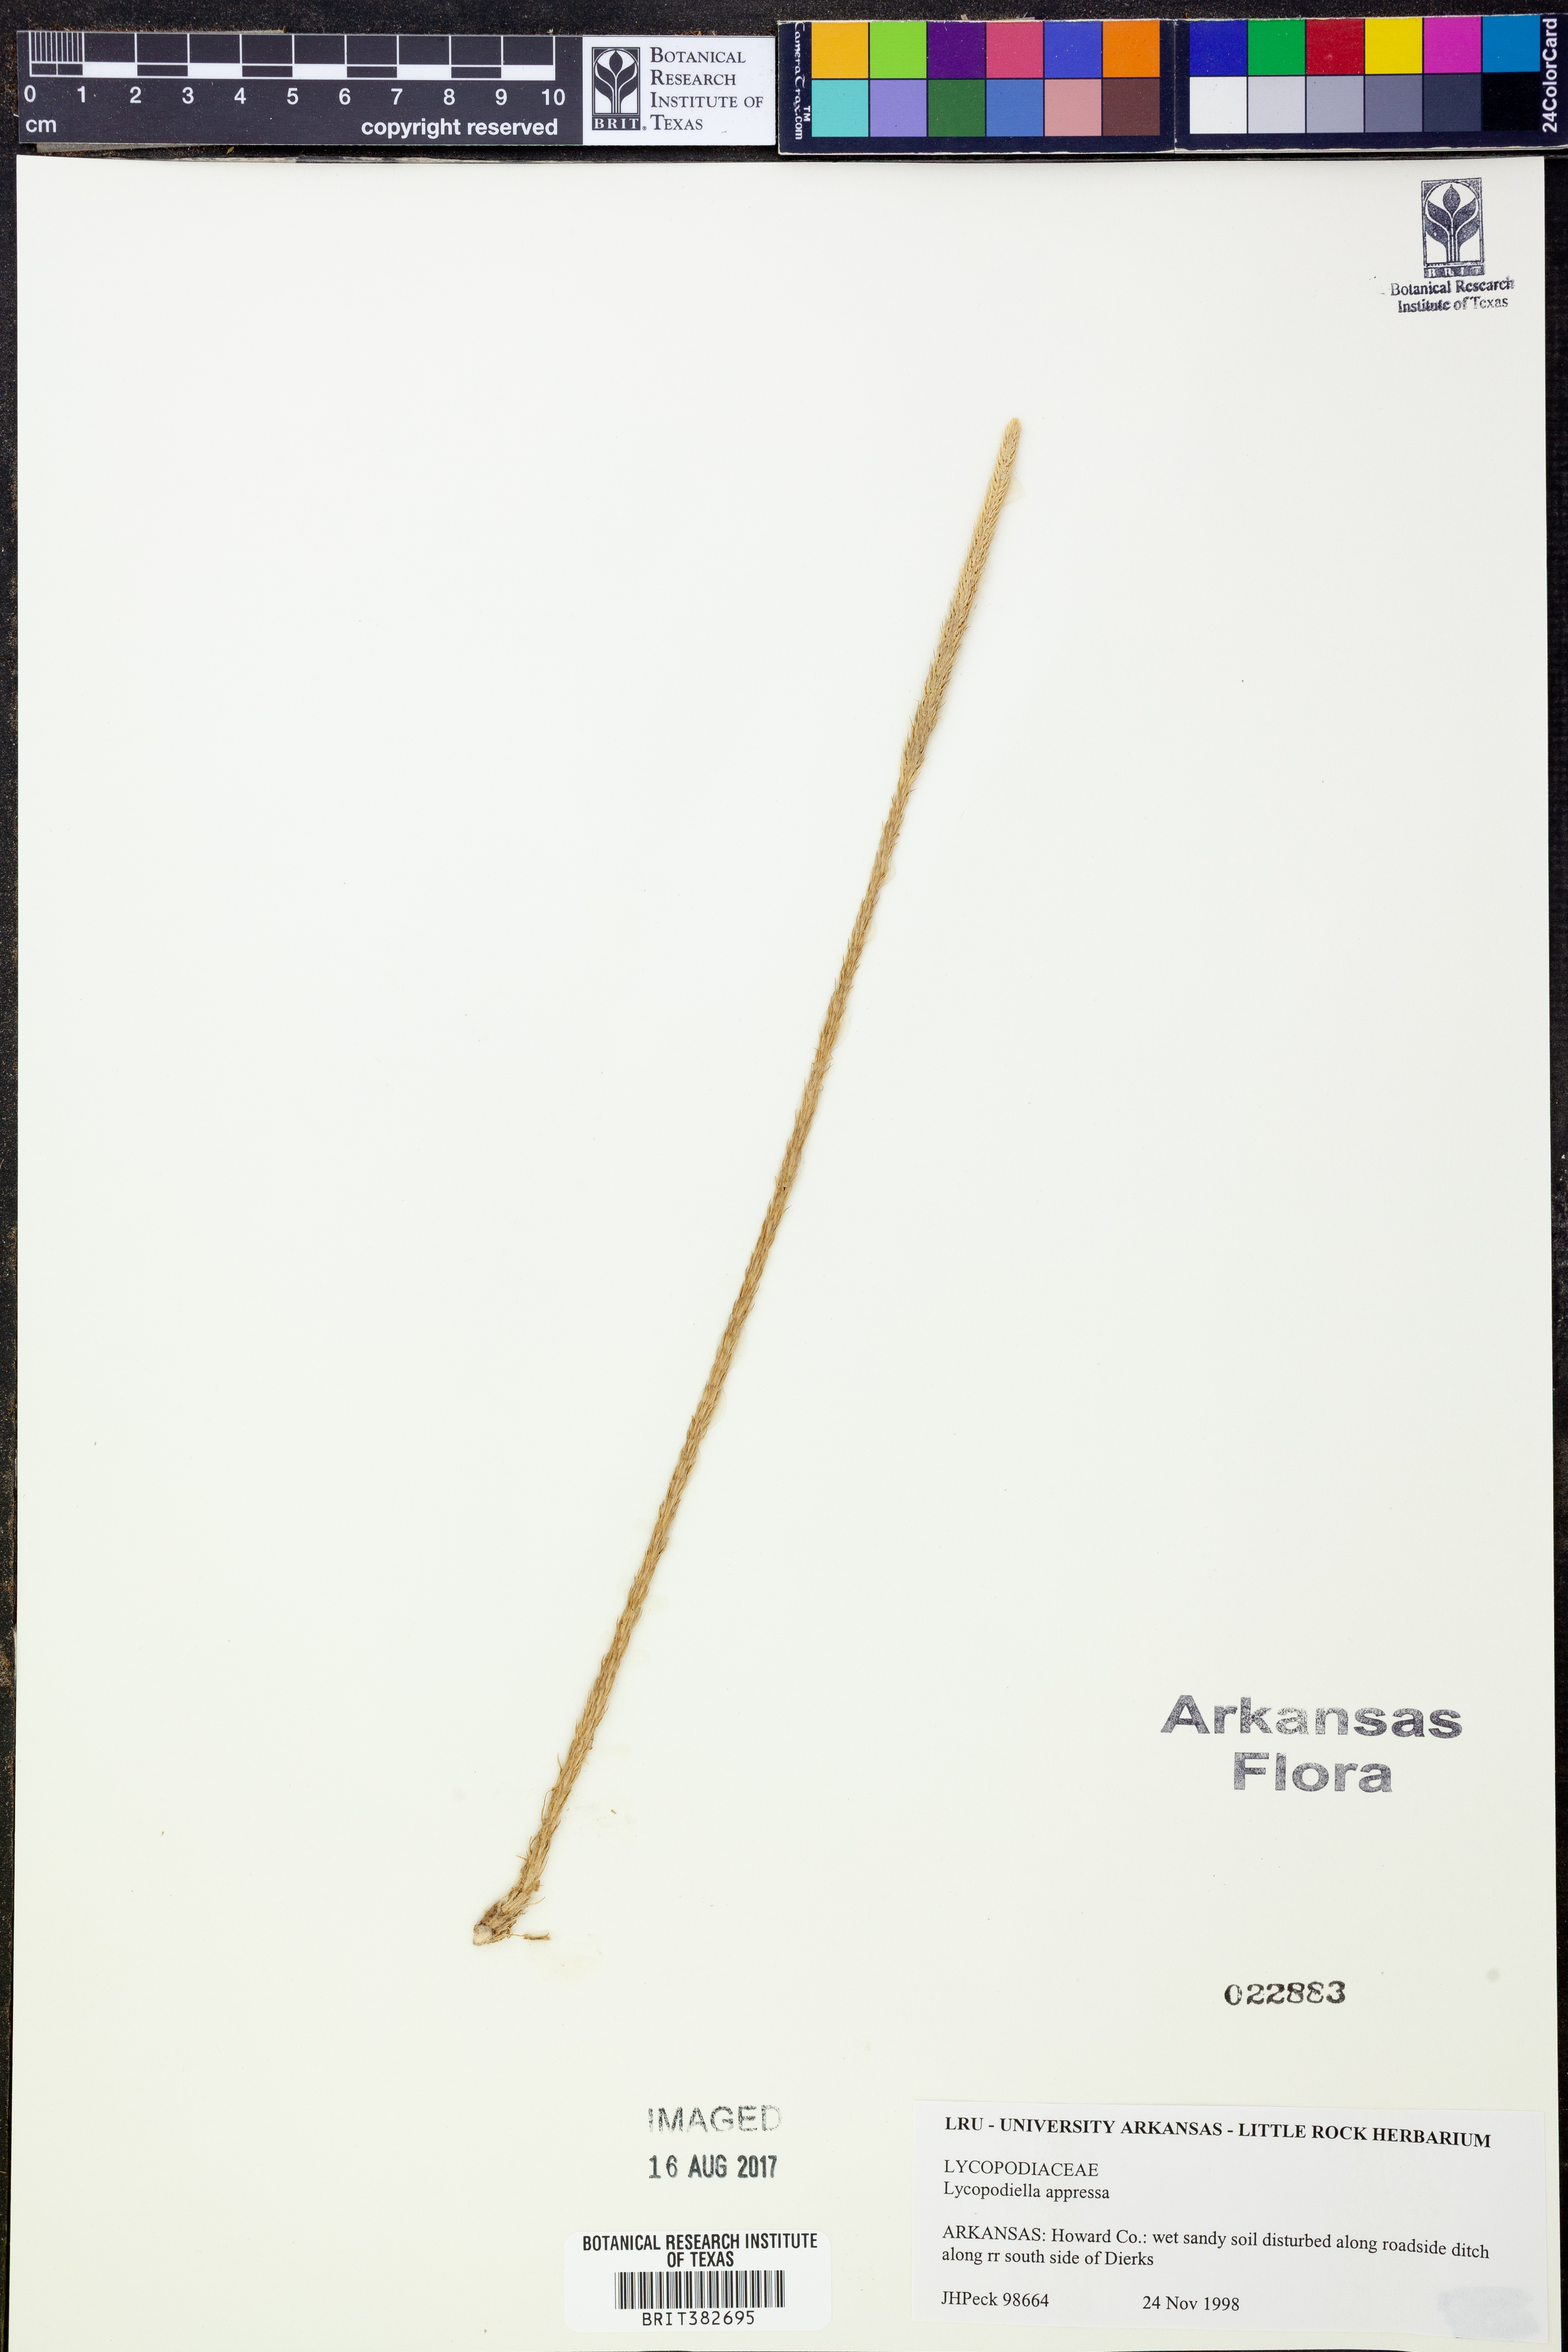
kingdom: Plantae
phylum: Tracheophyta
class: Lycopodiopsida
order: Lycopodiales
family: Lycopodiaceae
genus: Lycopodiella
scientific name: Lycopodiella appressa
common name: Appressed bog clubmoss
